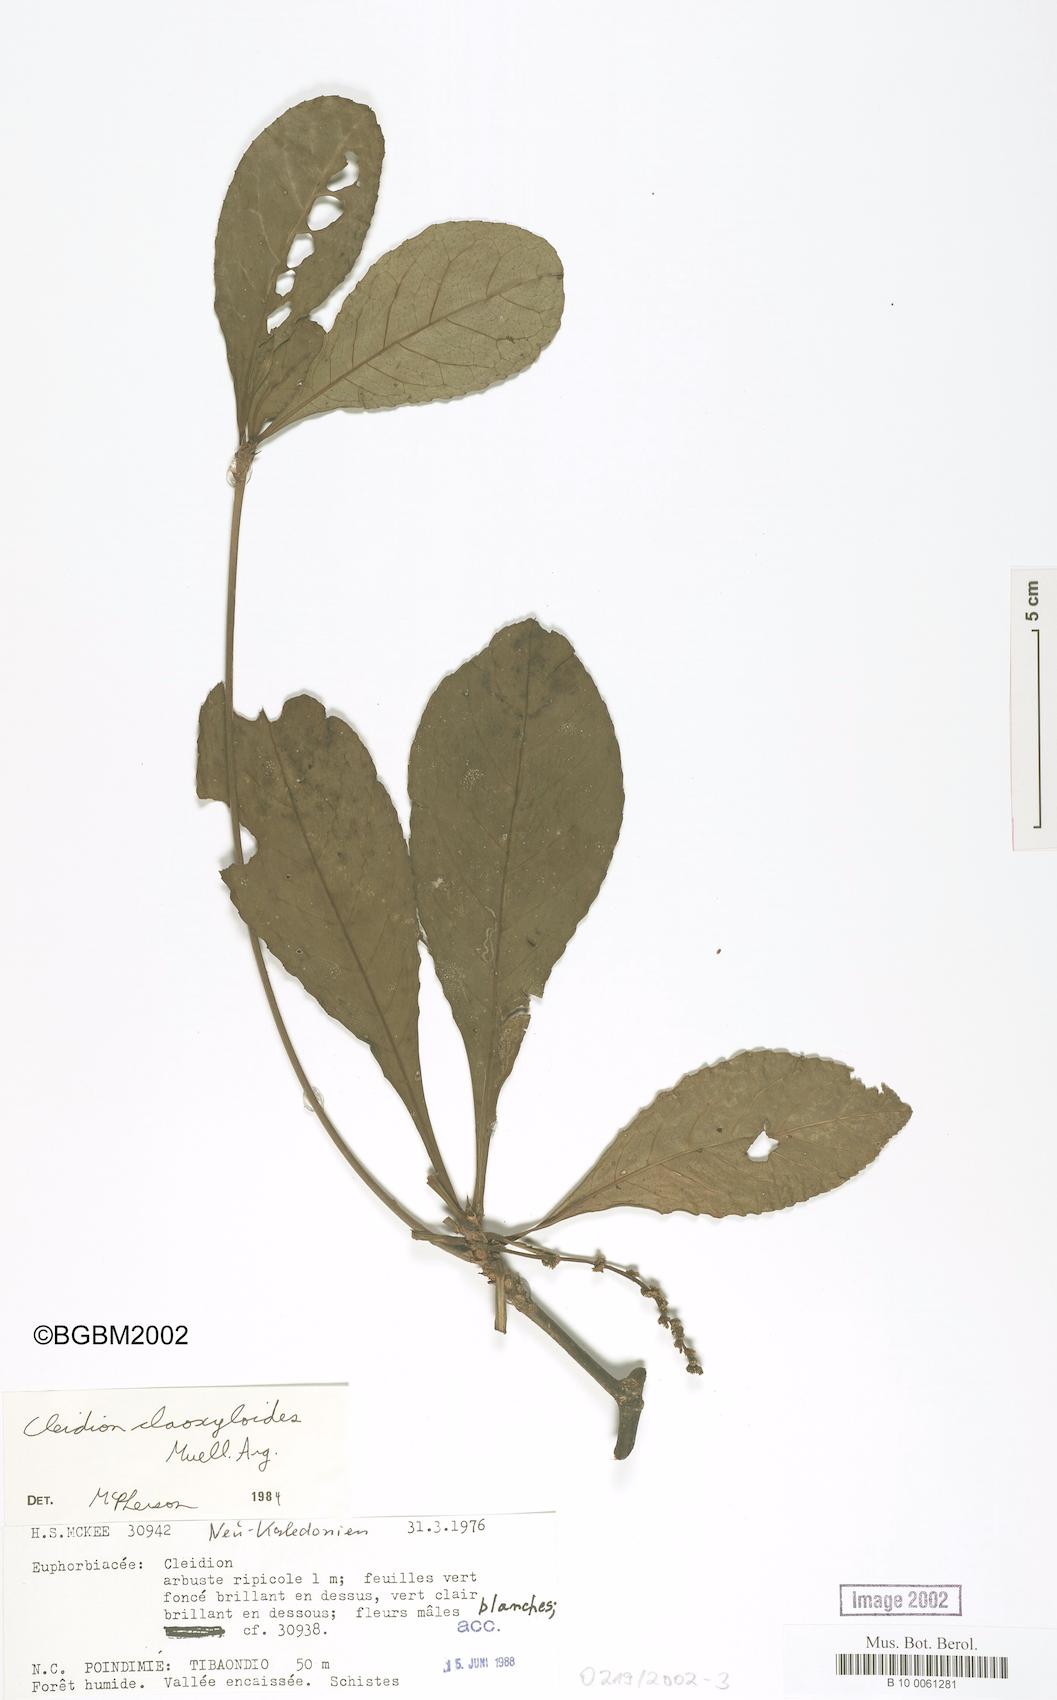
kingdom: Plantae
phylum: Tracheophyta
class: Magnoliopsida
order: Malpighiales
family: Euphorbiaceae
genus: Cleidion
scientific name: Cleidion claoxyloides
